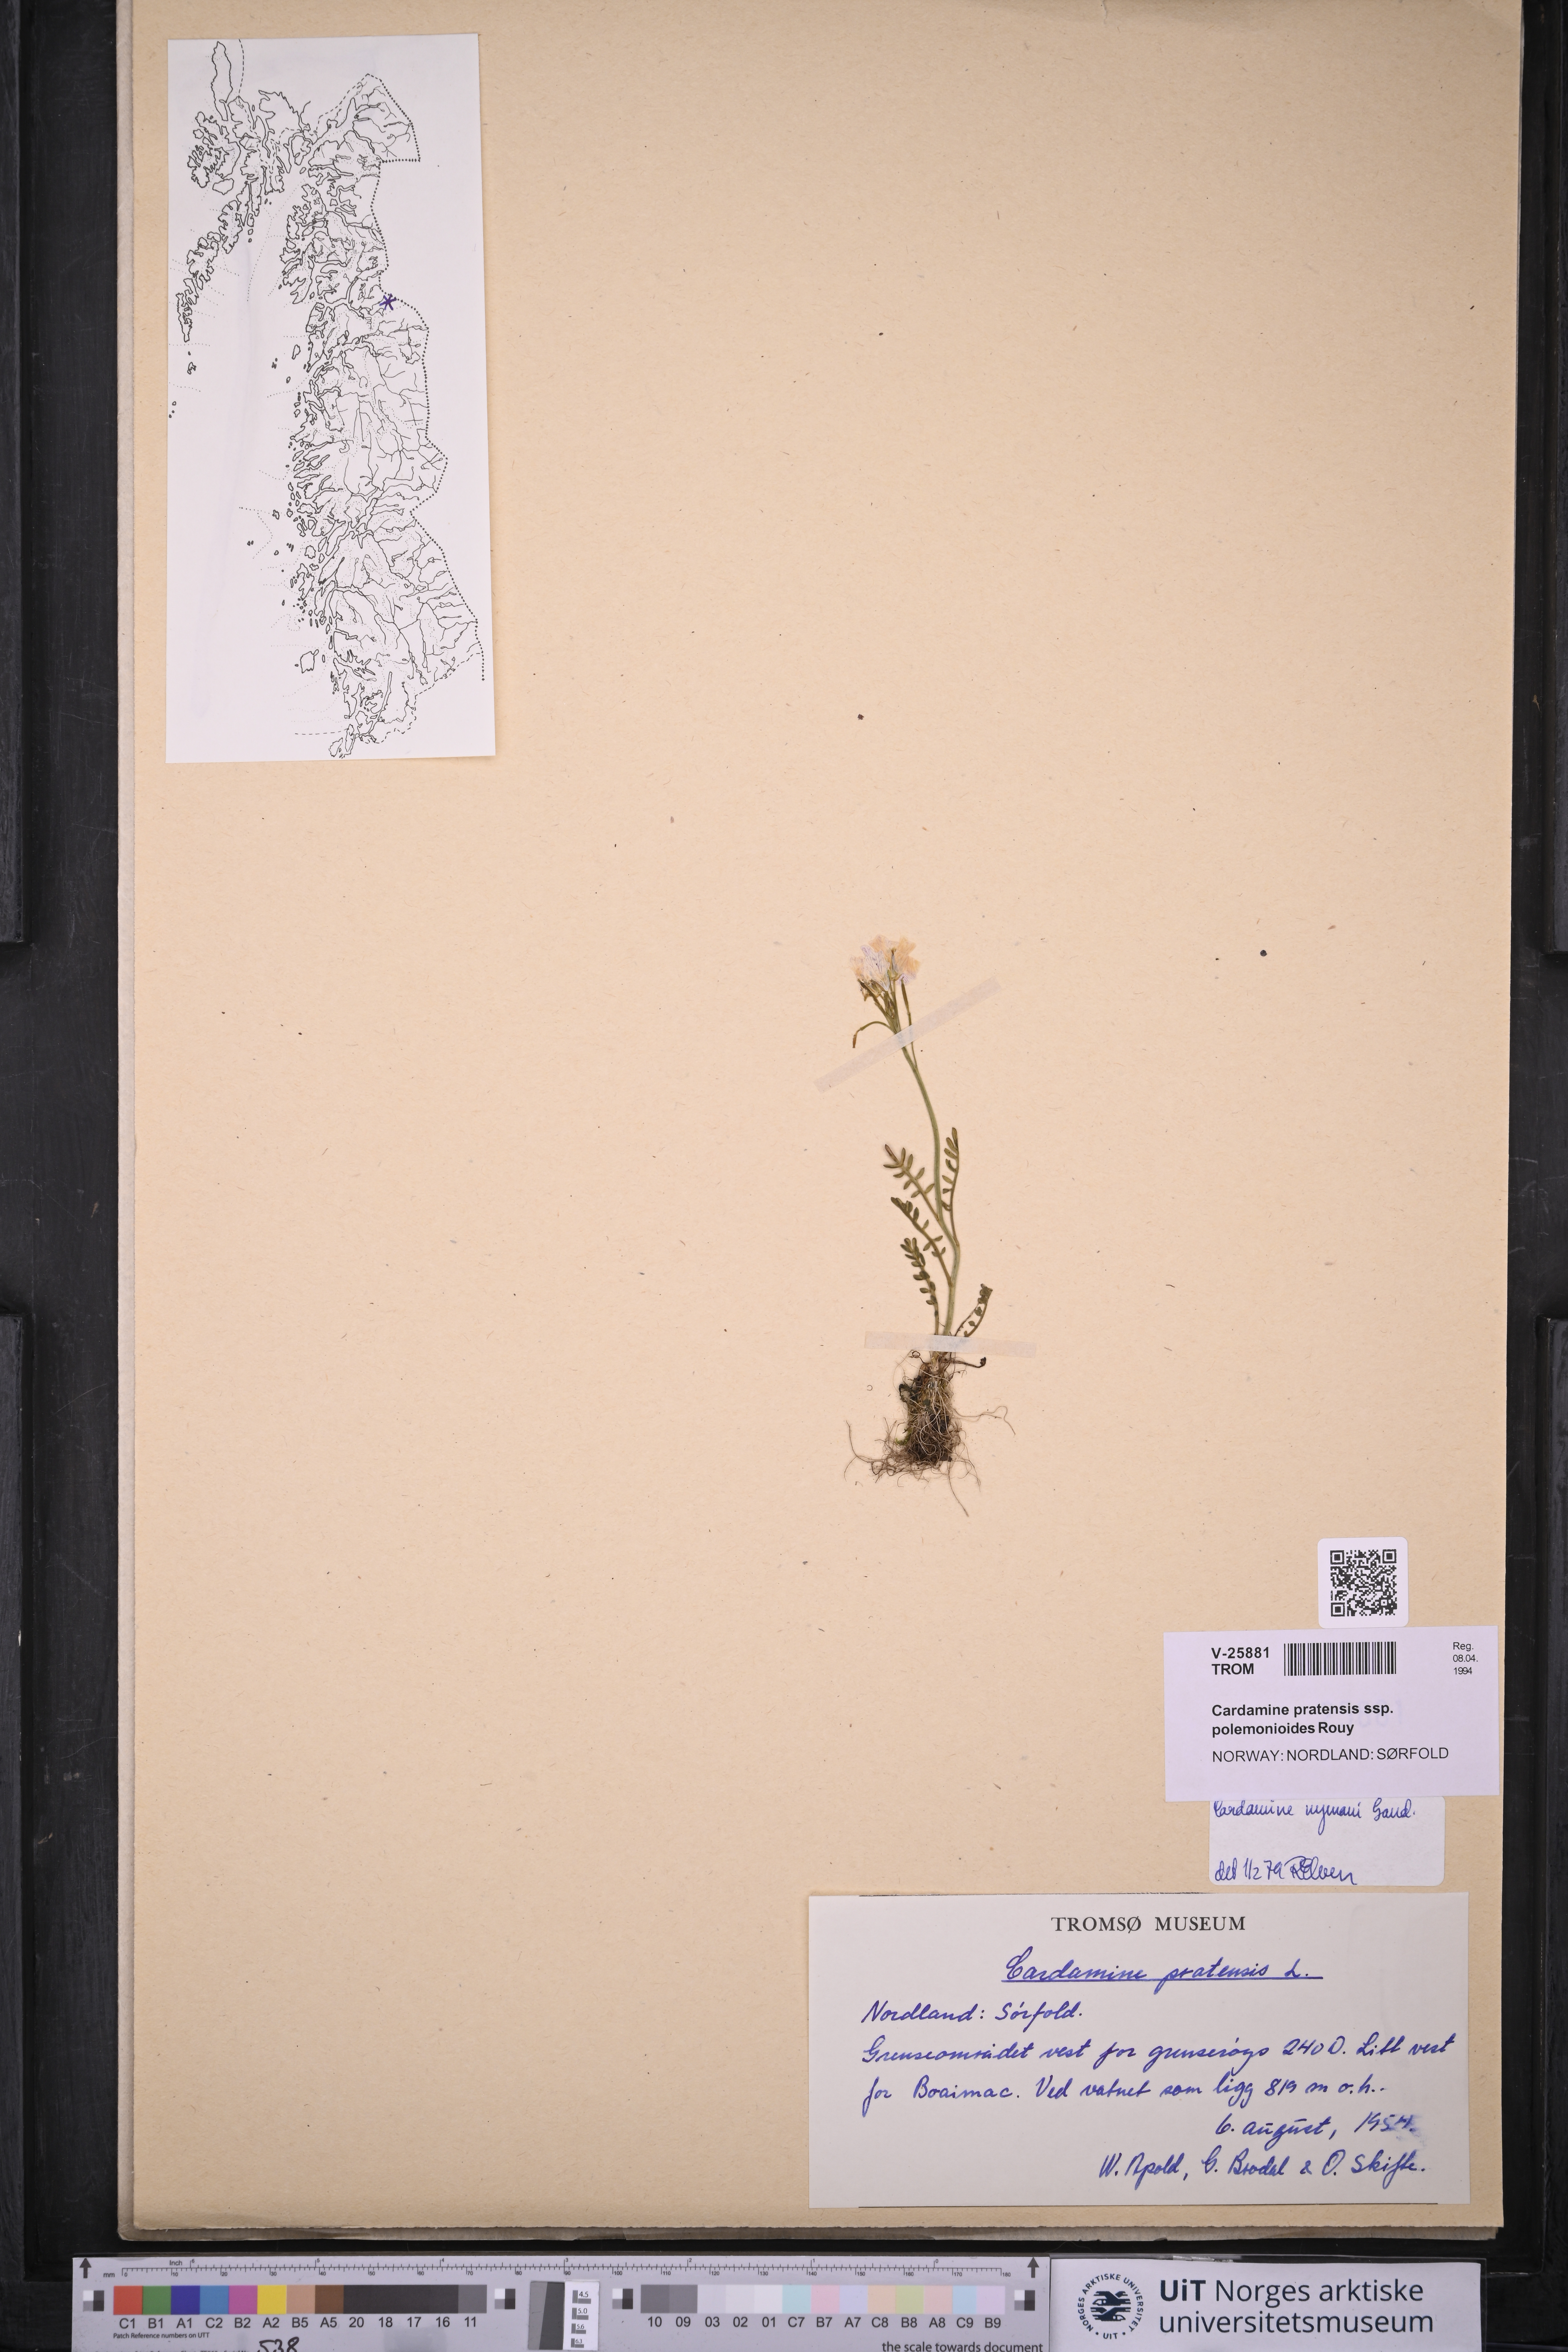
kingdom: Plantae
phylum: Tracheophyta
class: Magnoliopsida
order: Brassicales
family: Brassicaceae
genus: Cardamine
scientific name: Cardamine nymanii
